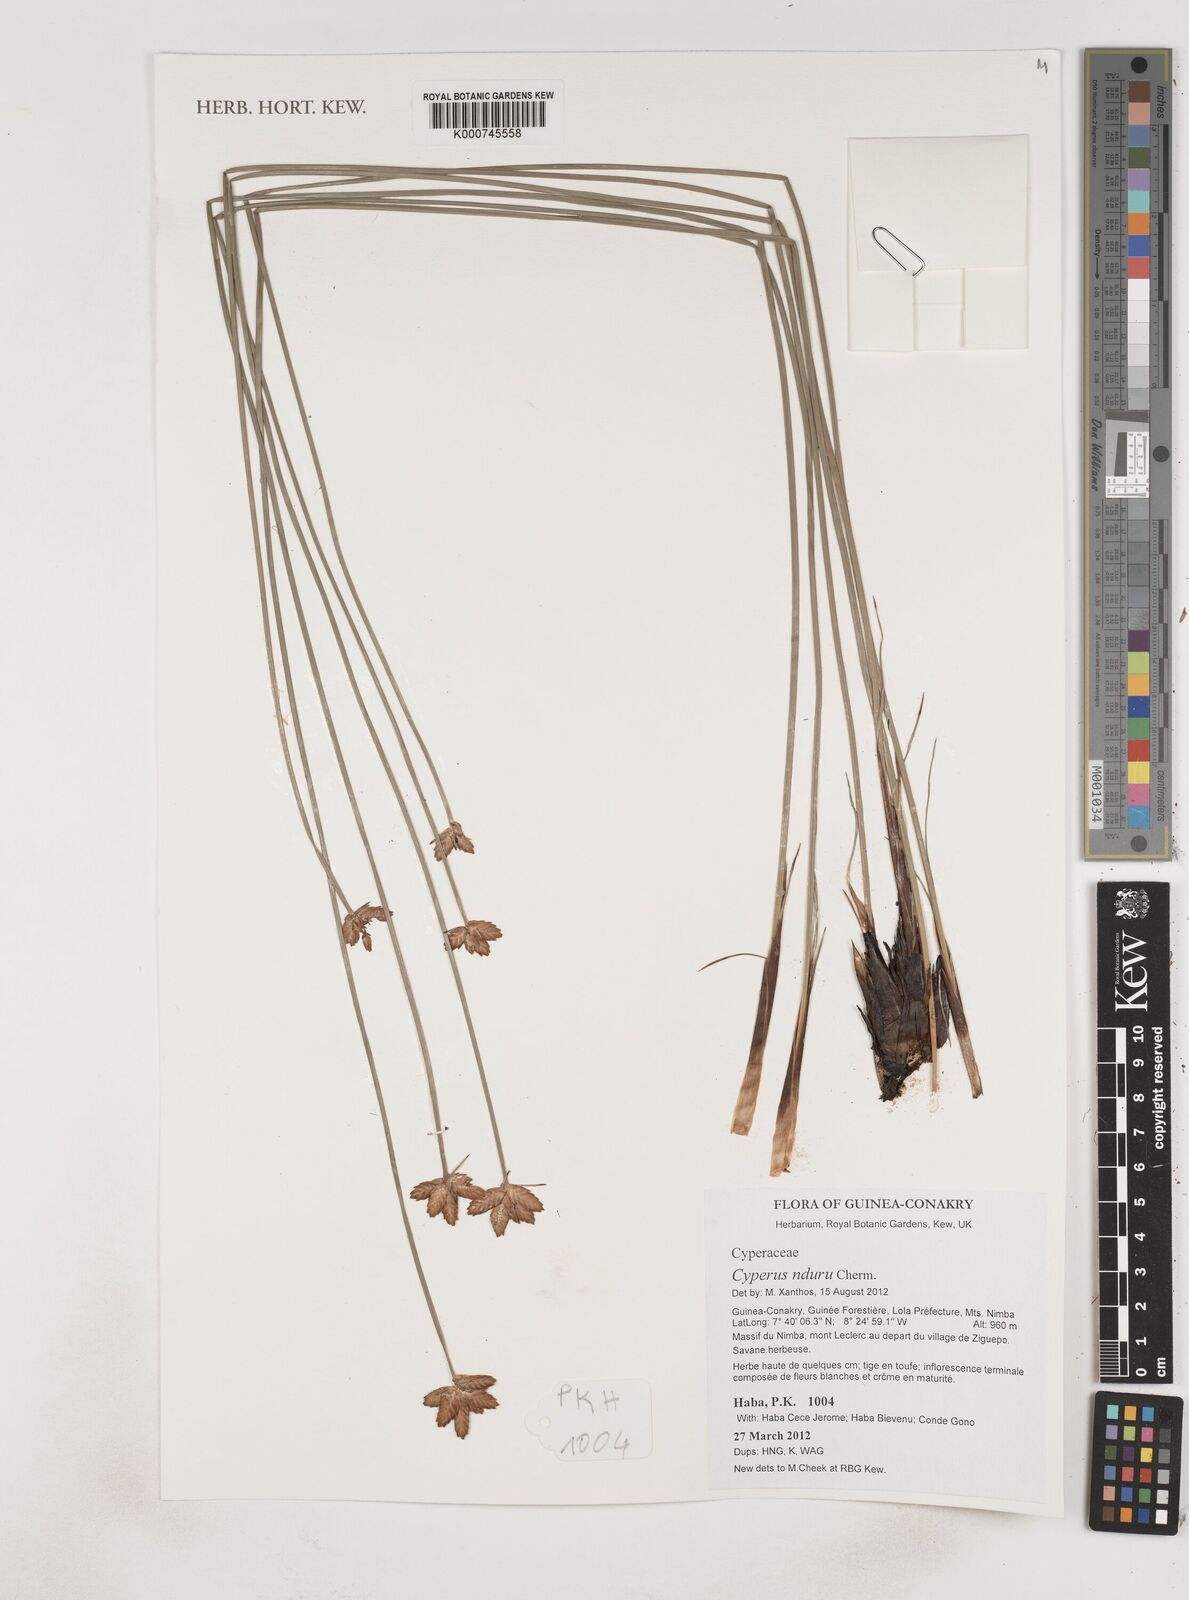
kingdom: Plantae
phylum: Tracheophyta
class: Liliopsida
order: Poales
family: Cyperaceae
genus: Cyperus
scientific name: Cyperus nduru
